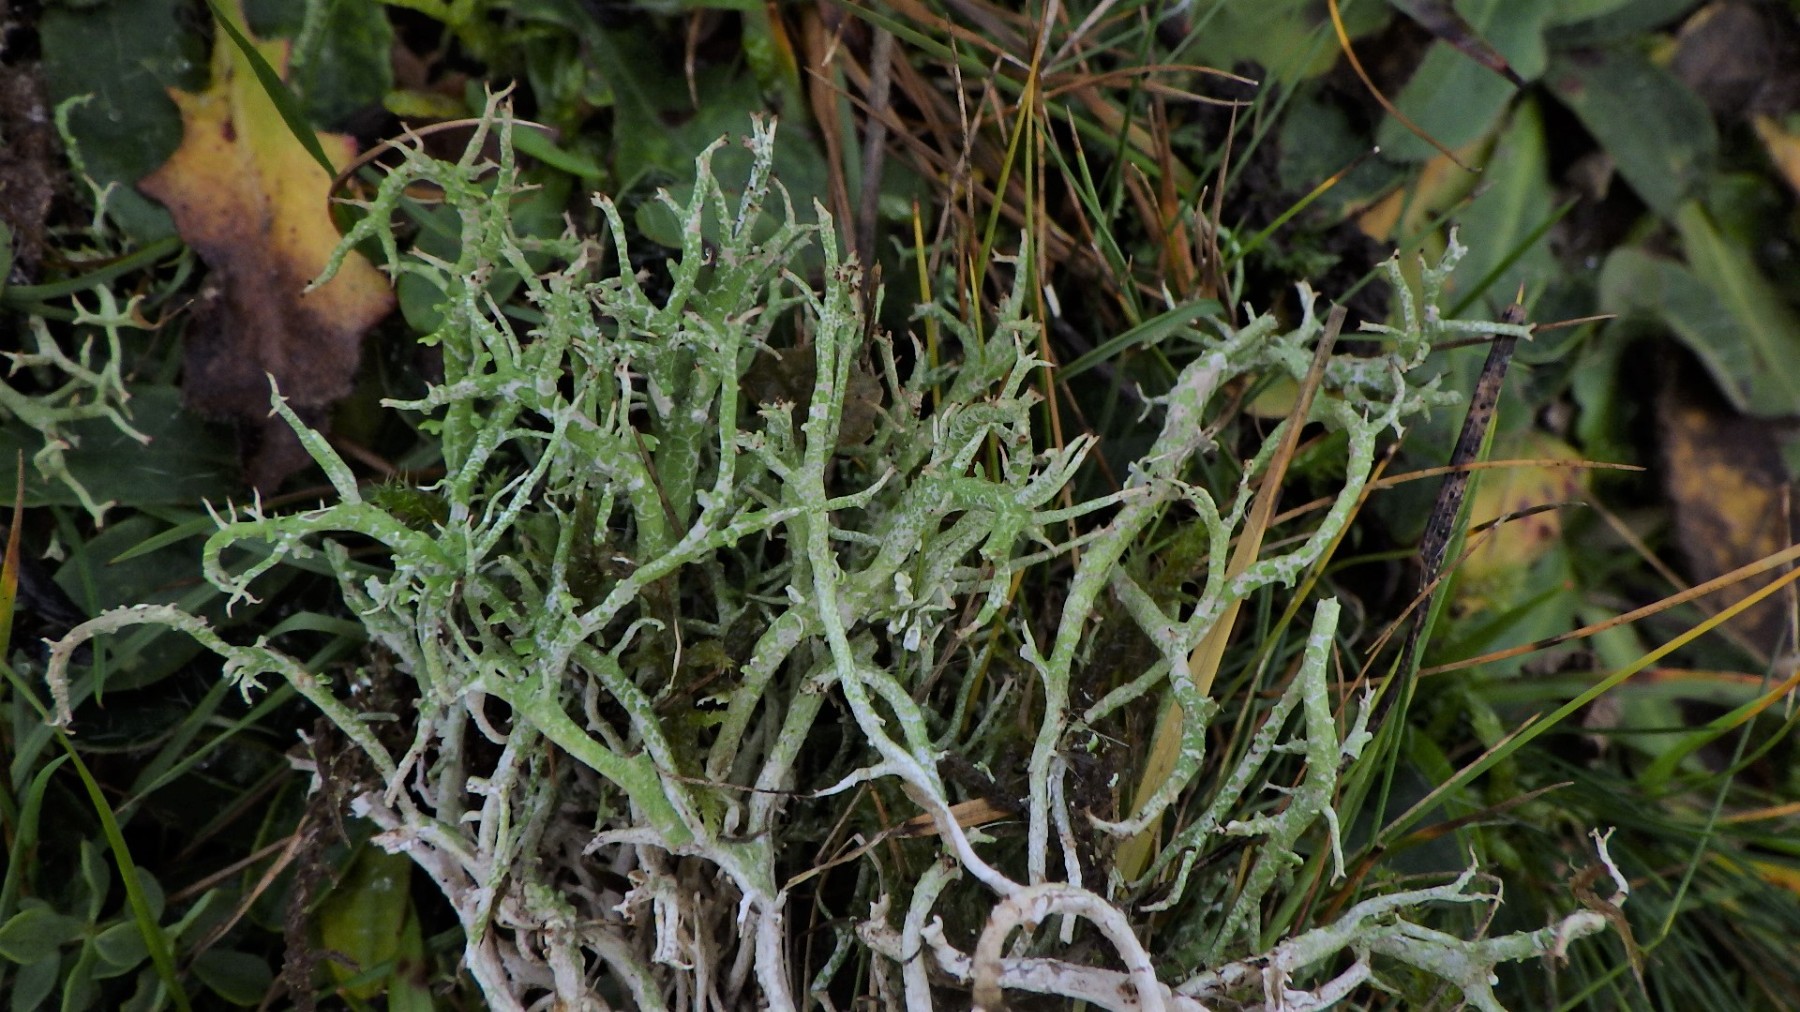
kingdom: Fungi
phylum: Ascomycota
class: Lecanoromycetes
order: Lecanorales
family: Cladoniaceae
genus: Cladonia
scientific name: Cladonia furcata
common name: kløftet bægerlav
